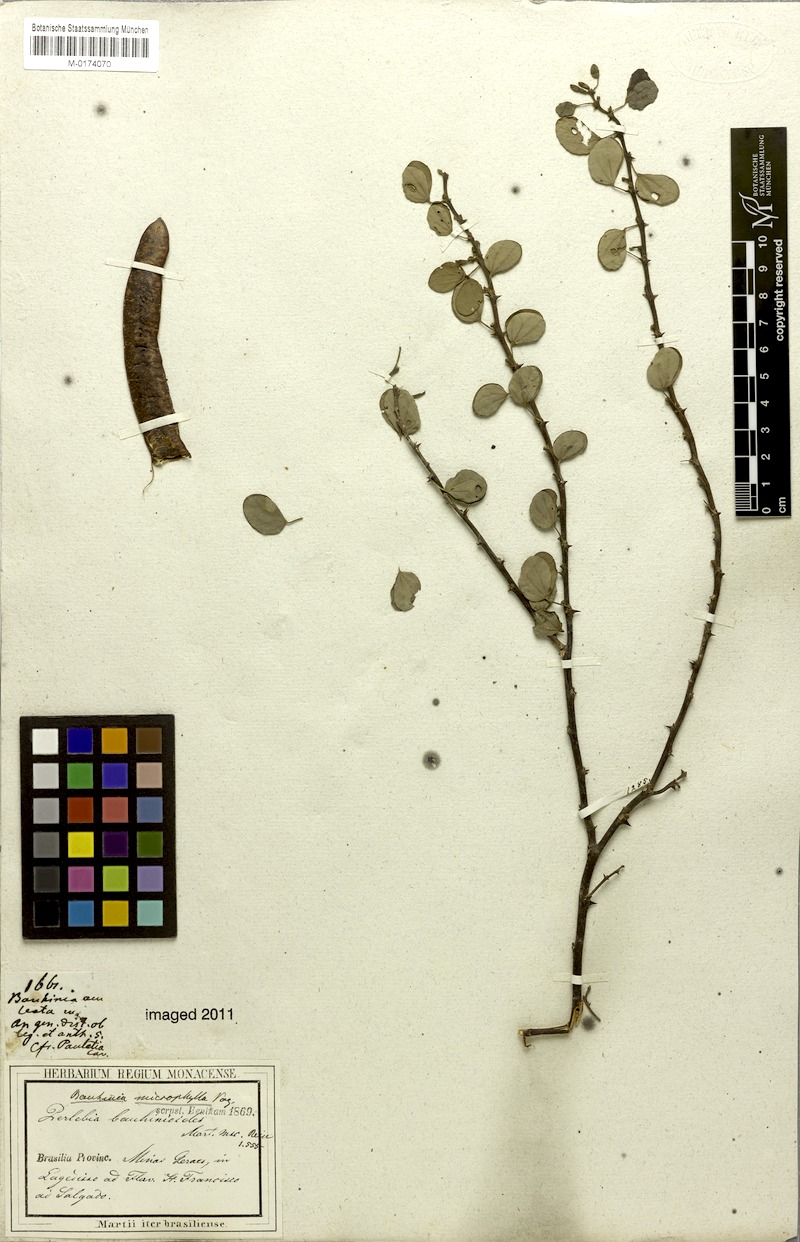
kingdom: Plantae
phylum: Tracheophyta
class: Magnoliopsida
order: Fabales
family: Fabaceae
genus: Bauhinia
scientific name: Bauhinia bauhinioides
